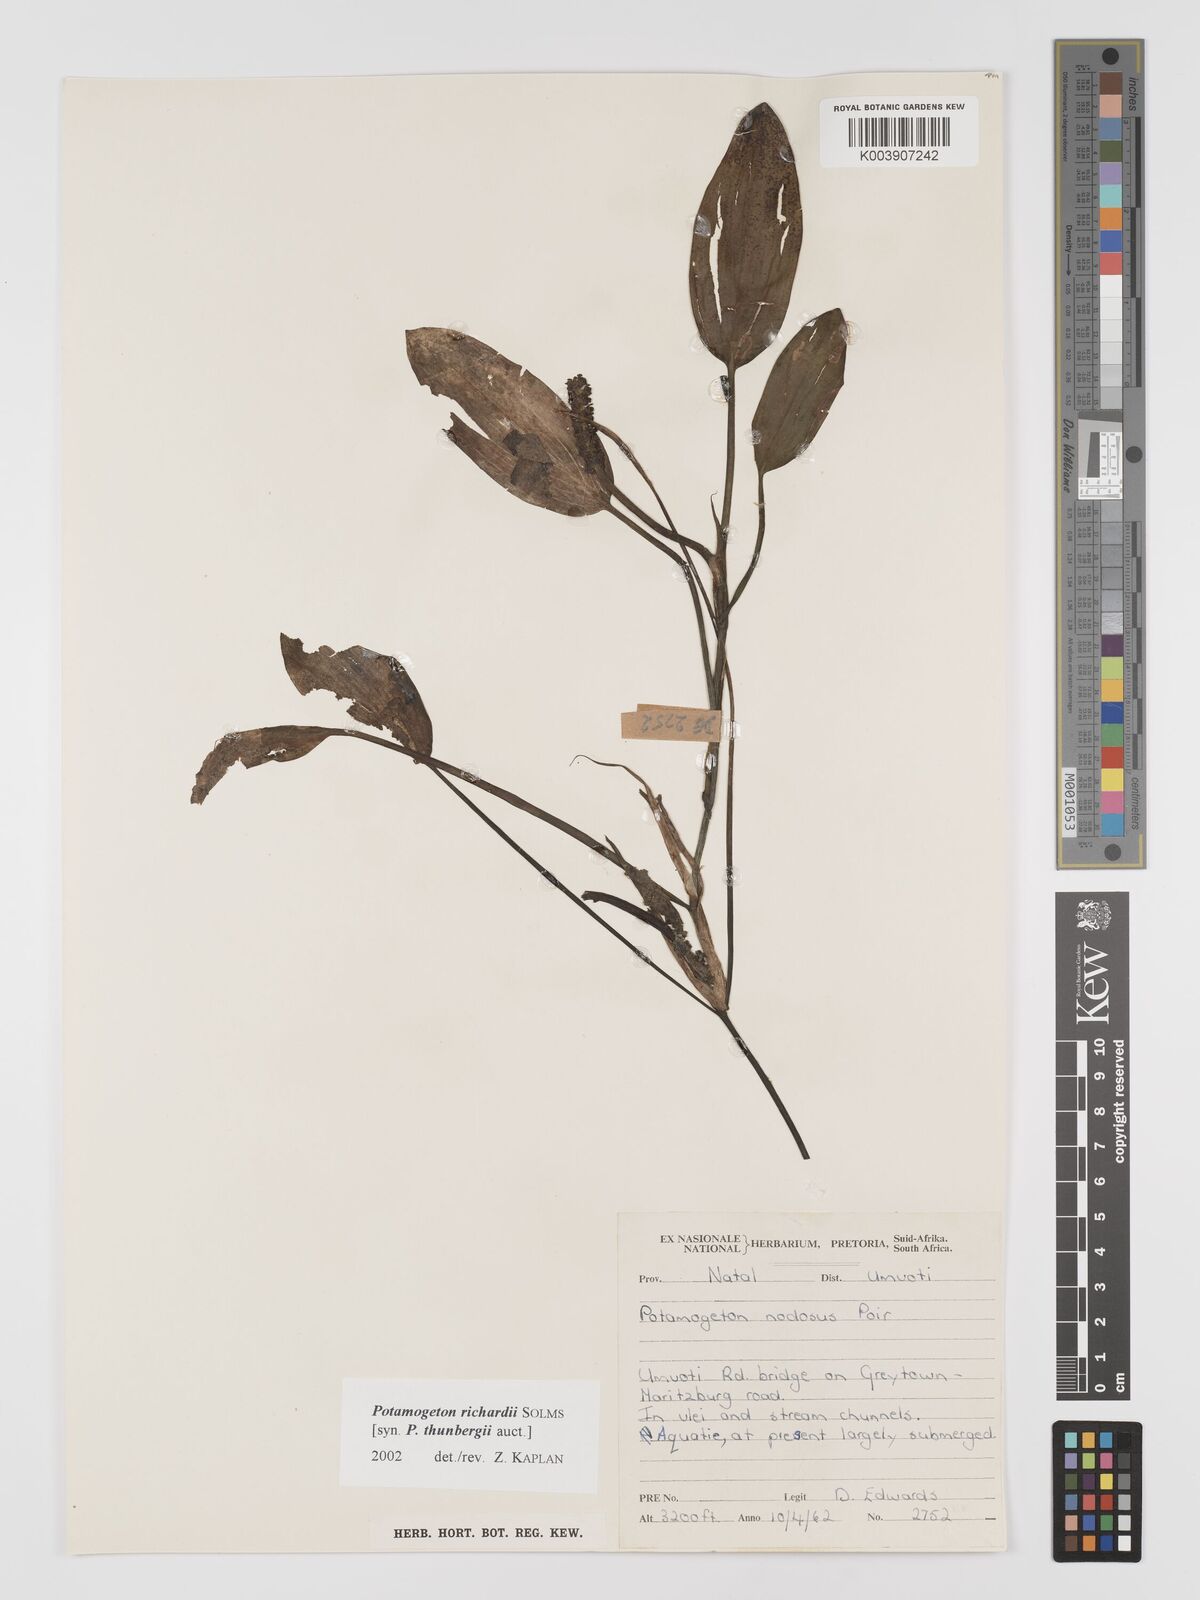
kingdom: Plantae
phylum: Tracheophyta
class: Liliopsida
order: Alismatales
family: Potamogetonaceae
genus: Potamogeton
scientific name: Potamogeton nodosus
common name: Loddon pondweed
